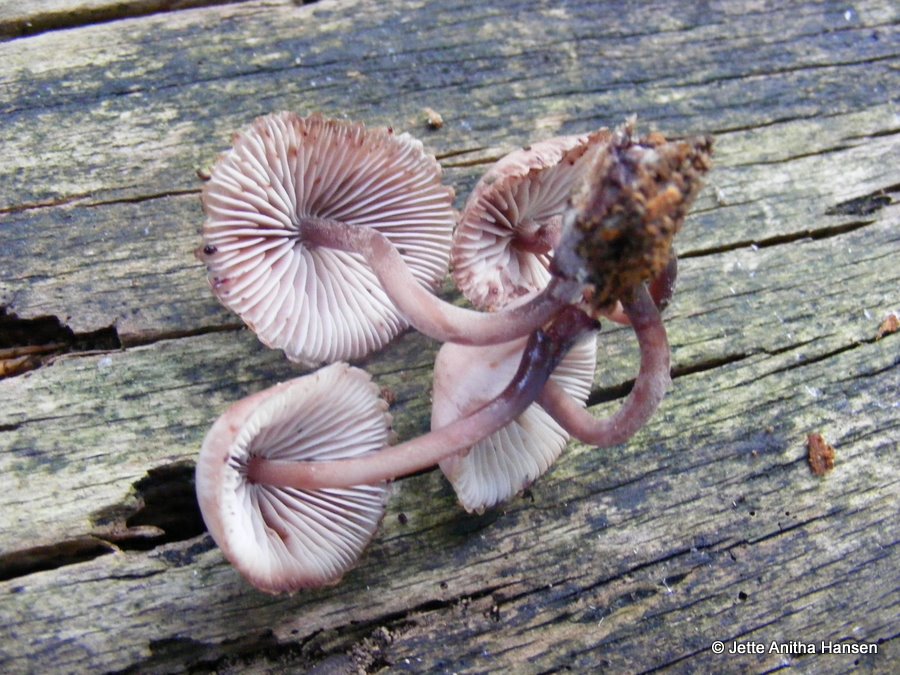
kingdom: Fungi
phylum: Basidiomycota
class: Agaricomycetes
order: Agaricales
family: Mycenaceae
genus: Mycena
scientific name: Mycena haematopus
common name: blødende huesvamp
